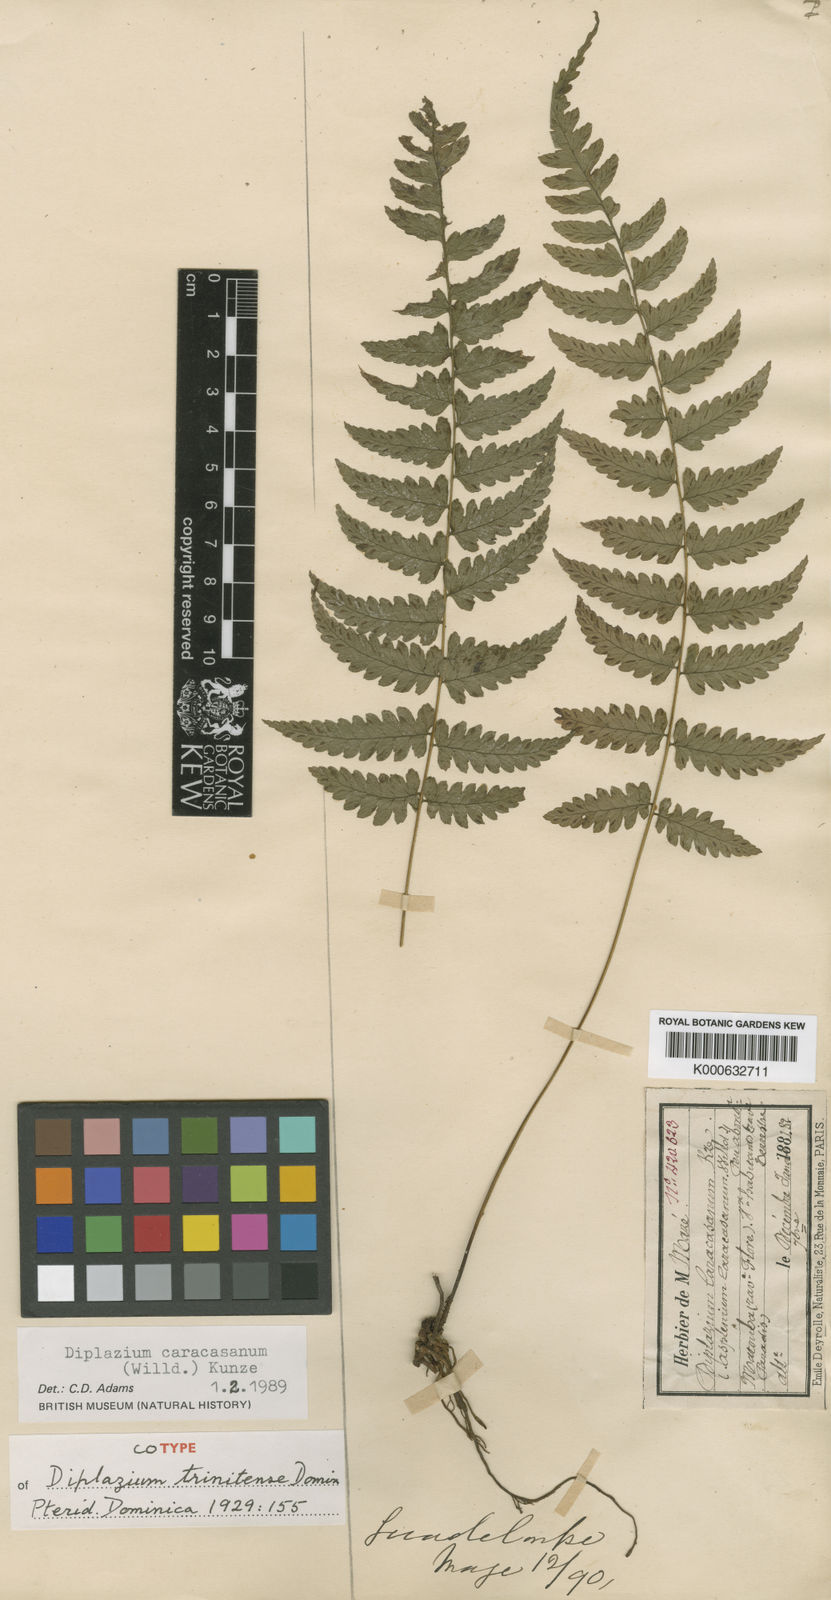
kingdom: Plantae
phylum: Tracheophyta
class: Polypodiopsida
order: Polypodiales
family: Athyriaceae
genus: Diplazium
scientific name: Diplazium caracasanum
